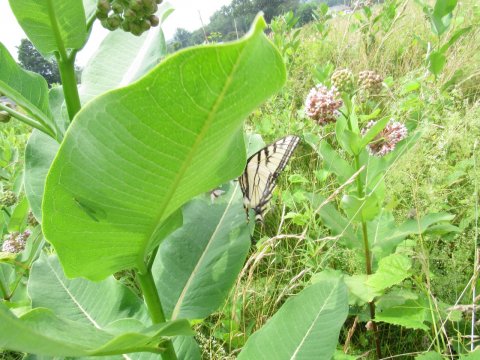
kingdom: Animalia
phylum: Arthropoda
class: Insecta
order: Lepidoptera
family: Papilionidae
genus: Pterourus
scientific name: Pterourus canadensis
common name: Canadian Tiger Swallowtail
